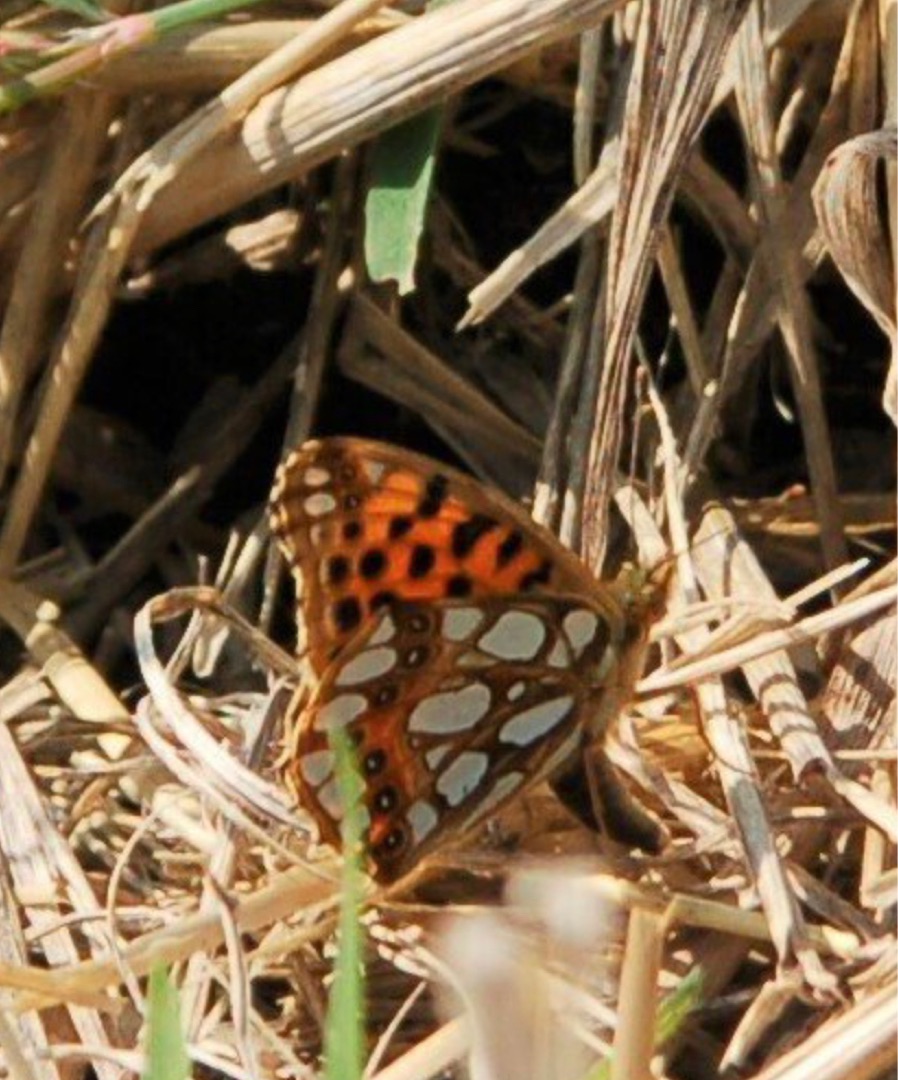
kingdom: Animalia
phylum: Arthropoda
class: Insecta
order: Lepidoptera
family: Nymphalidae
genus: Issoria
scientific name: Issoria lathonia
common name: Storplettet perlemorsommerfugl
